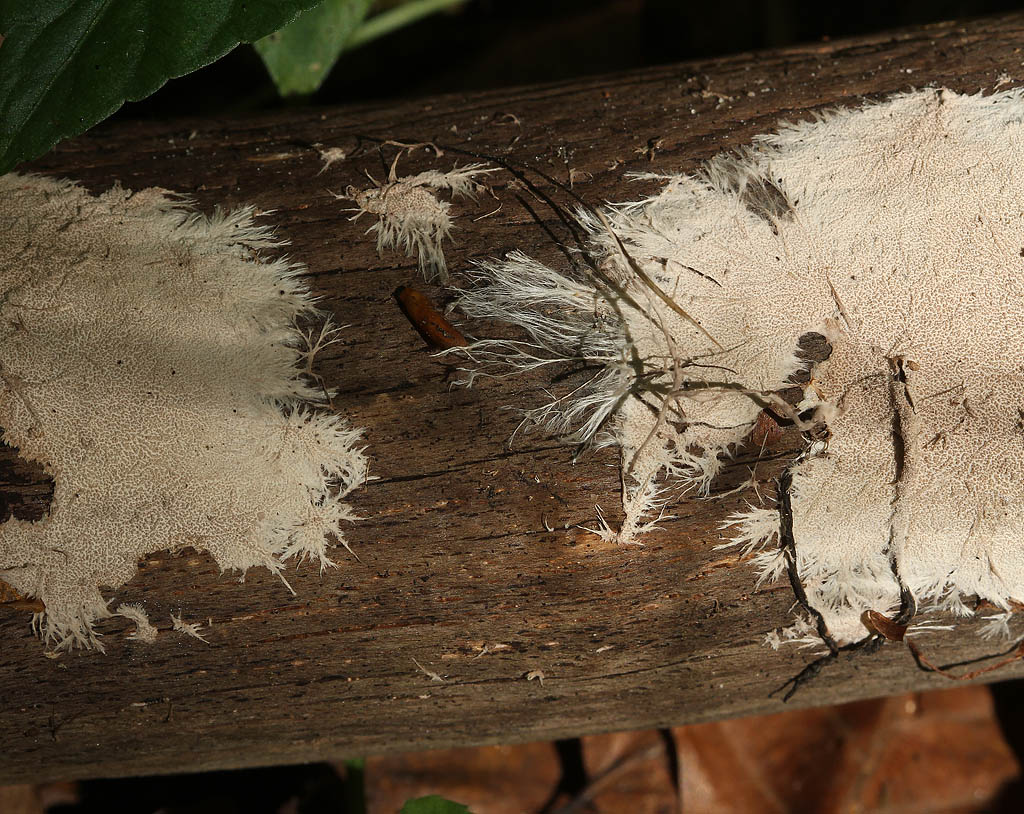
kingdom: Fungi
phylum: Basidiomycota
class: Agaricomycetes
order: Polyporales
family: Steccherinaceae
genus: Steccherinum
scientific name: Steccherinum fimbriatum
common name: trådet skønpig
